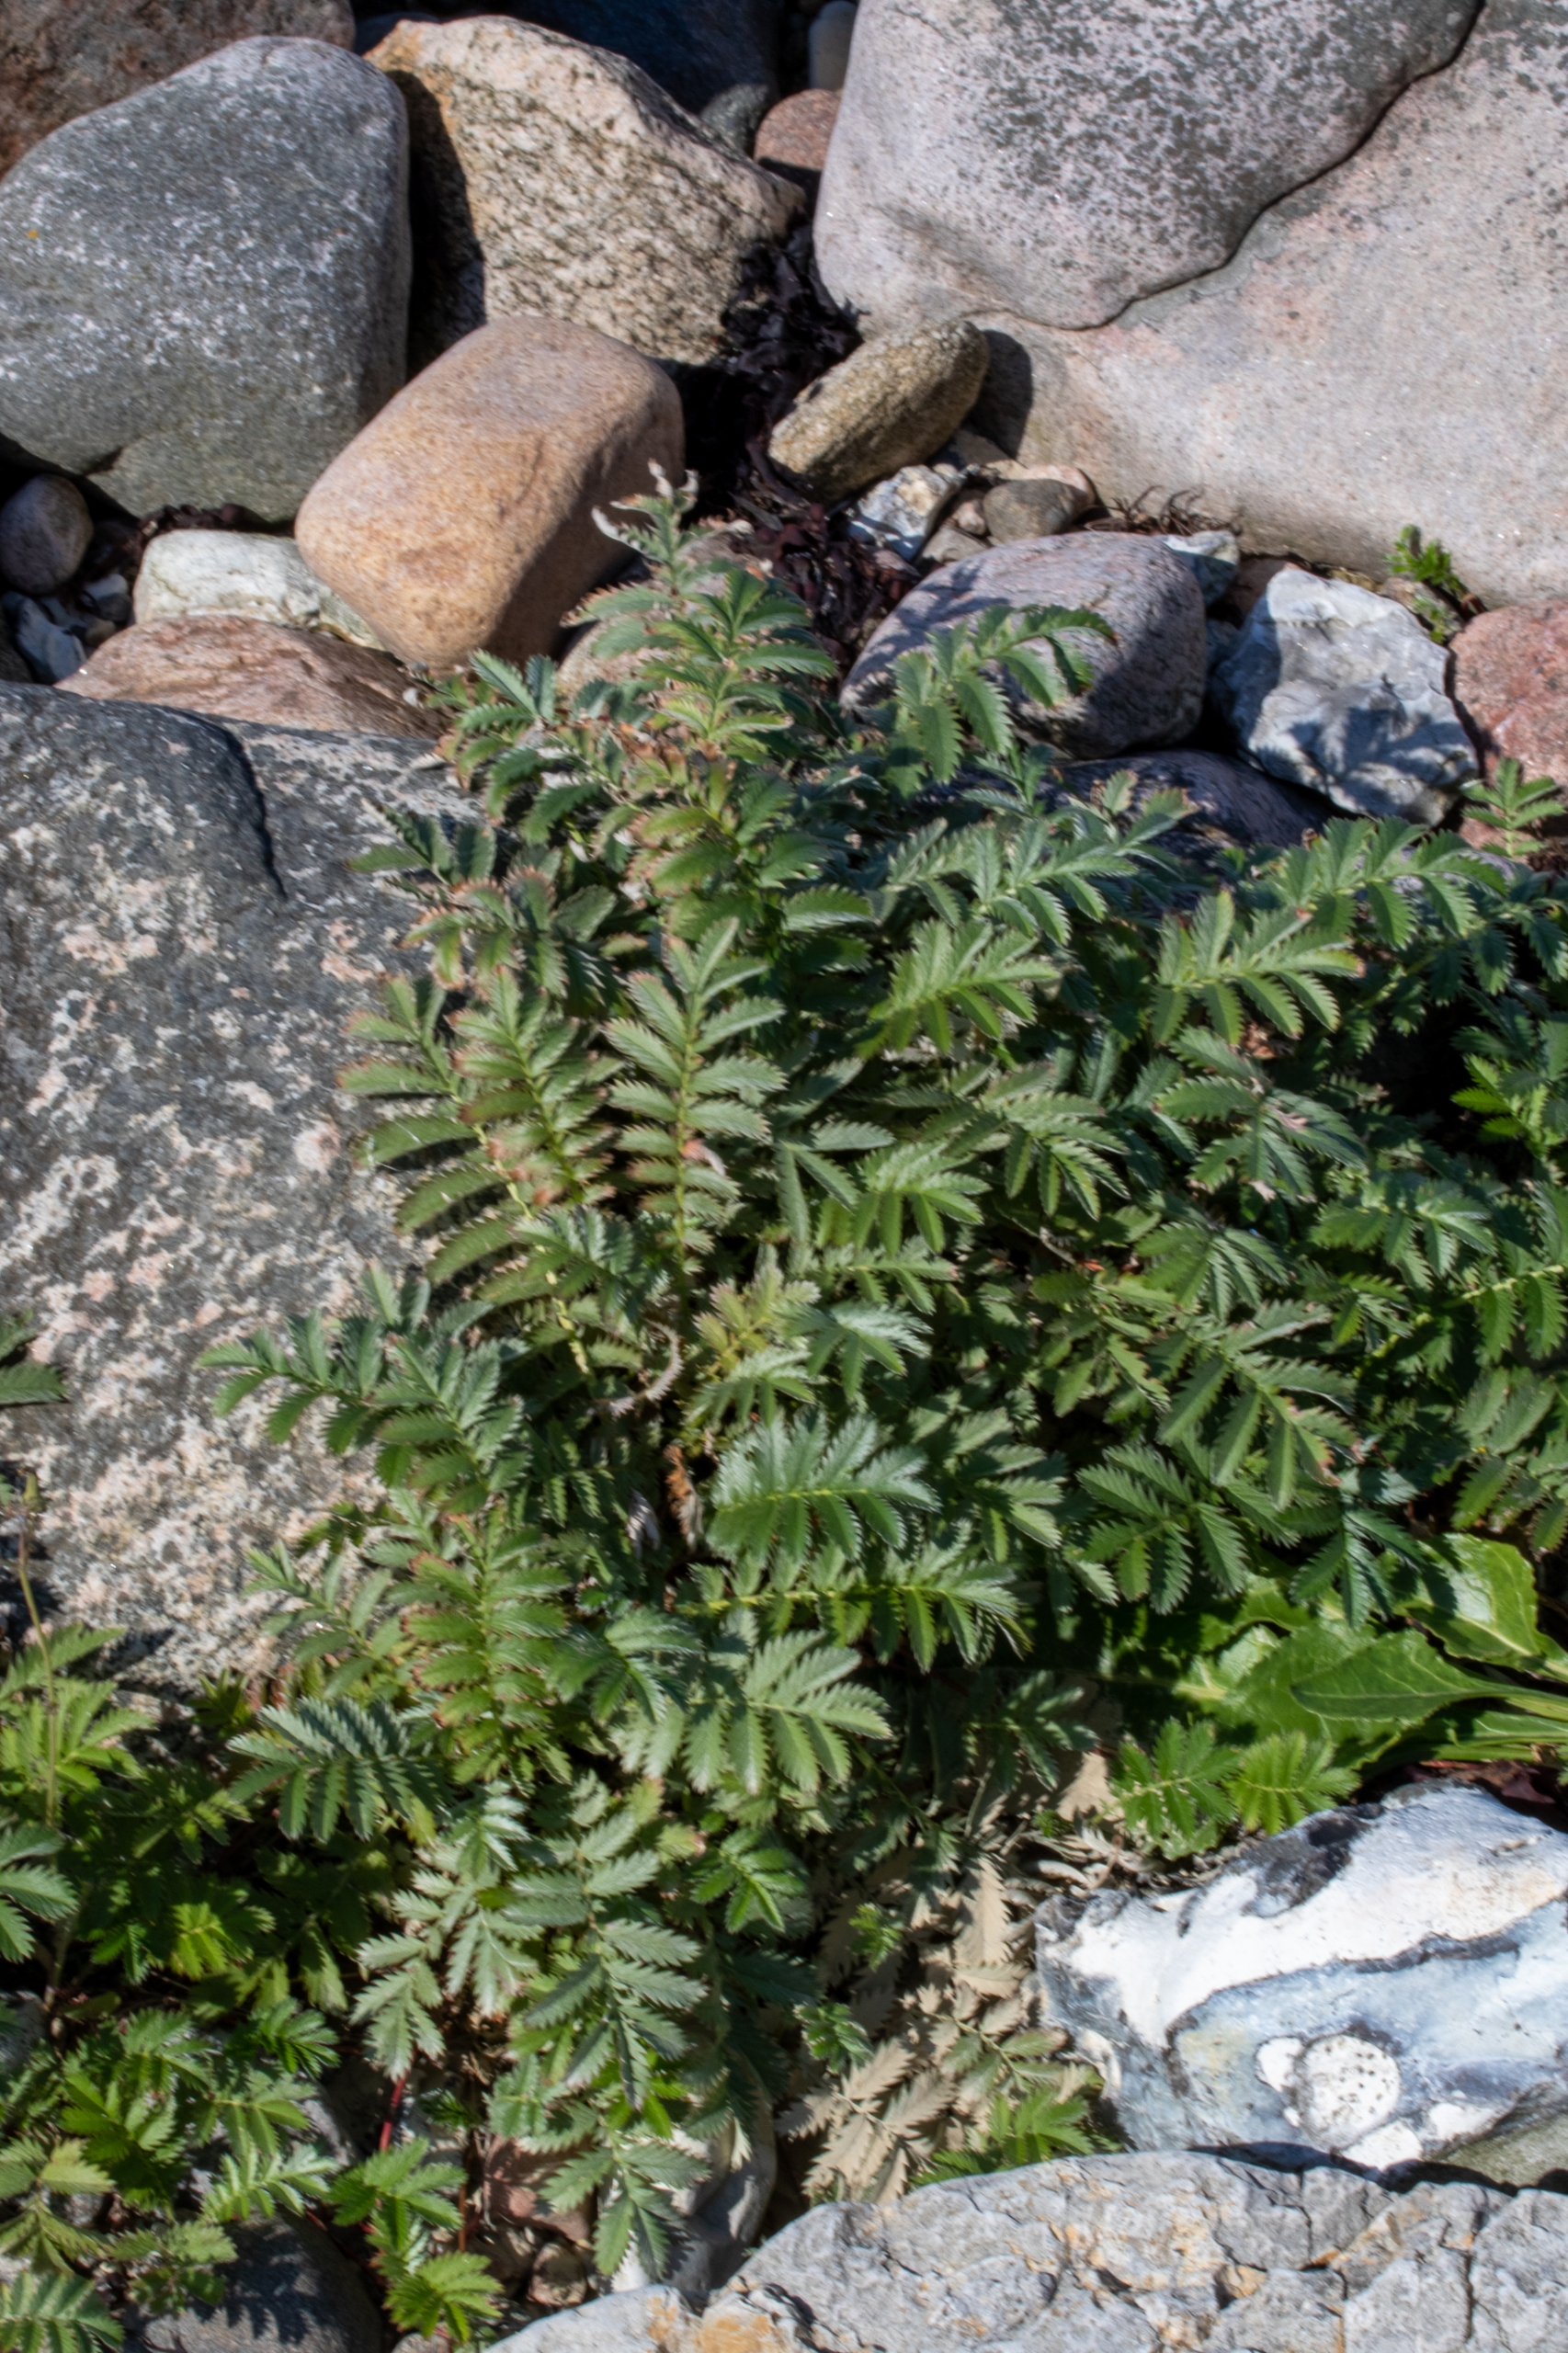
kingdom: Plantae
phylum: Tracheophyta
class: Magnoliopsida
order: Rosales
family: Rosaceae
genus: Argentina
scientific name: Argentina anserina
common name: Gåsepotentil
